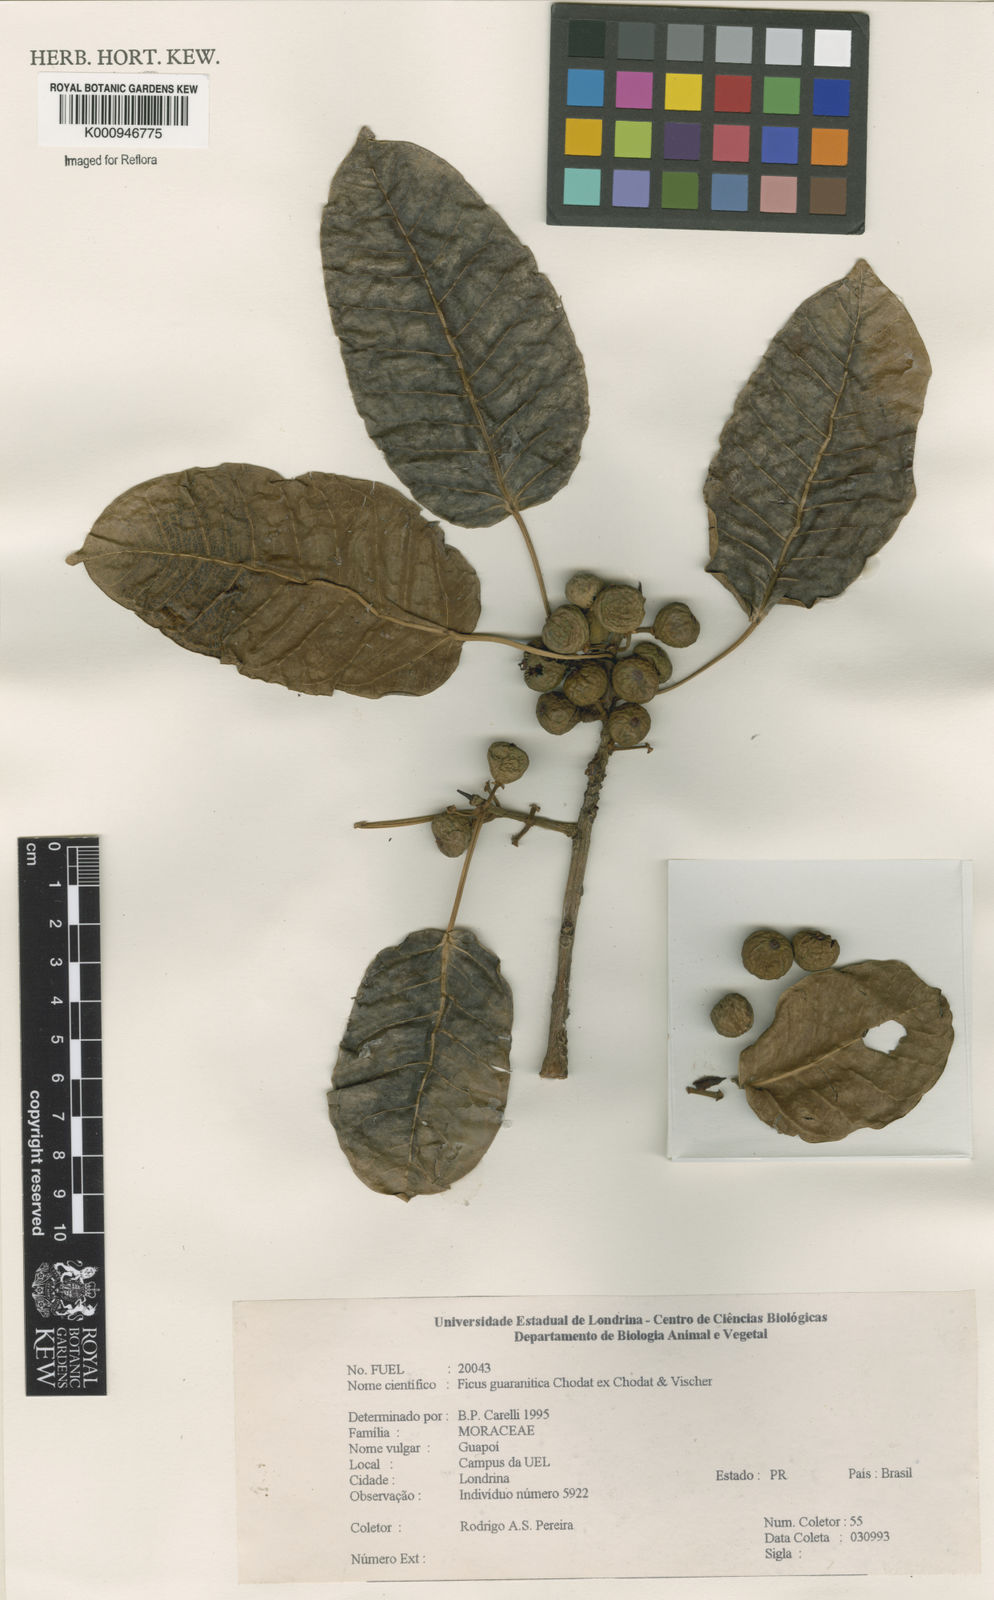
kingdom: Plantae
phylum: Tracheophyta
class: Magnoliopsida
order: Rosales
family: Moraceae
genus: Ficus
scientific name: Ficus guaranitica
